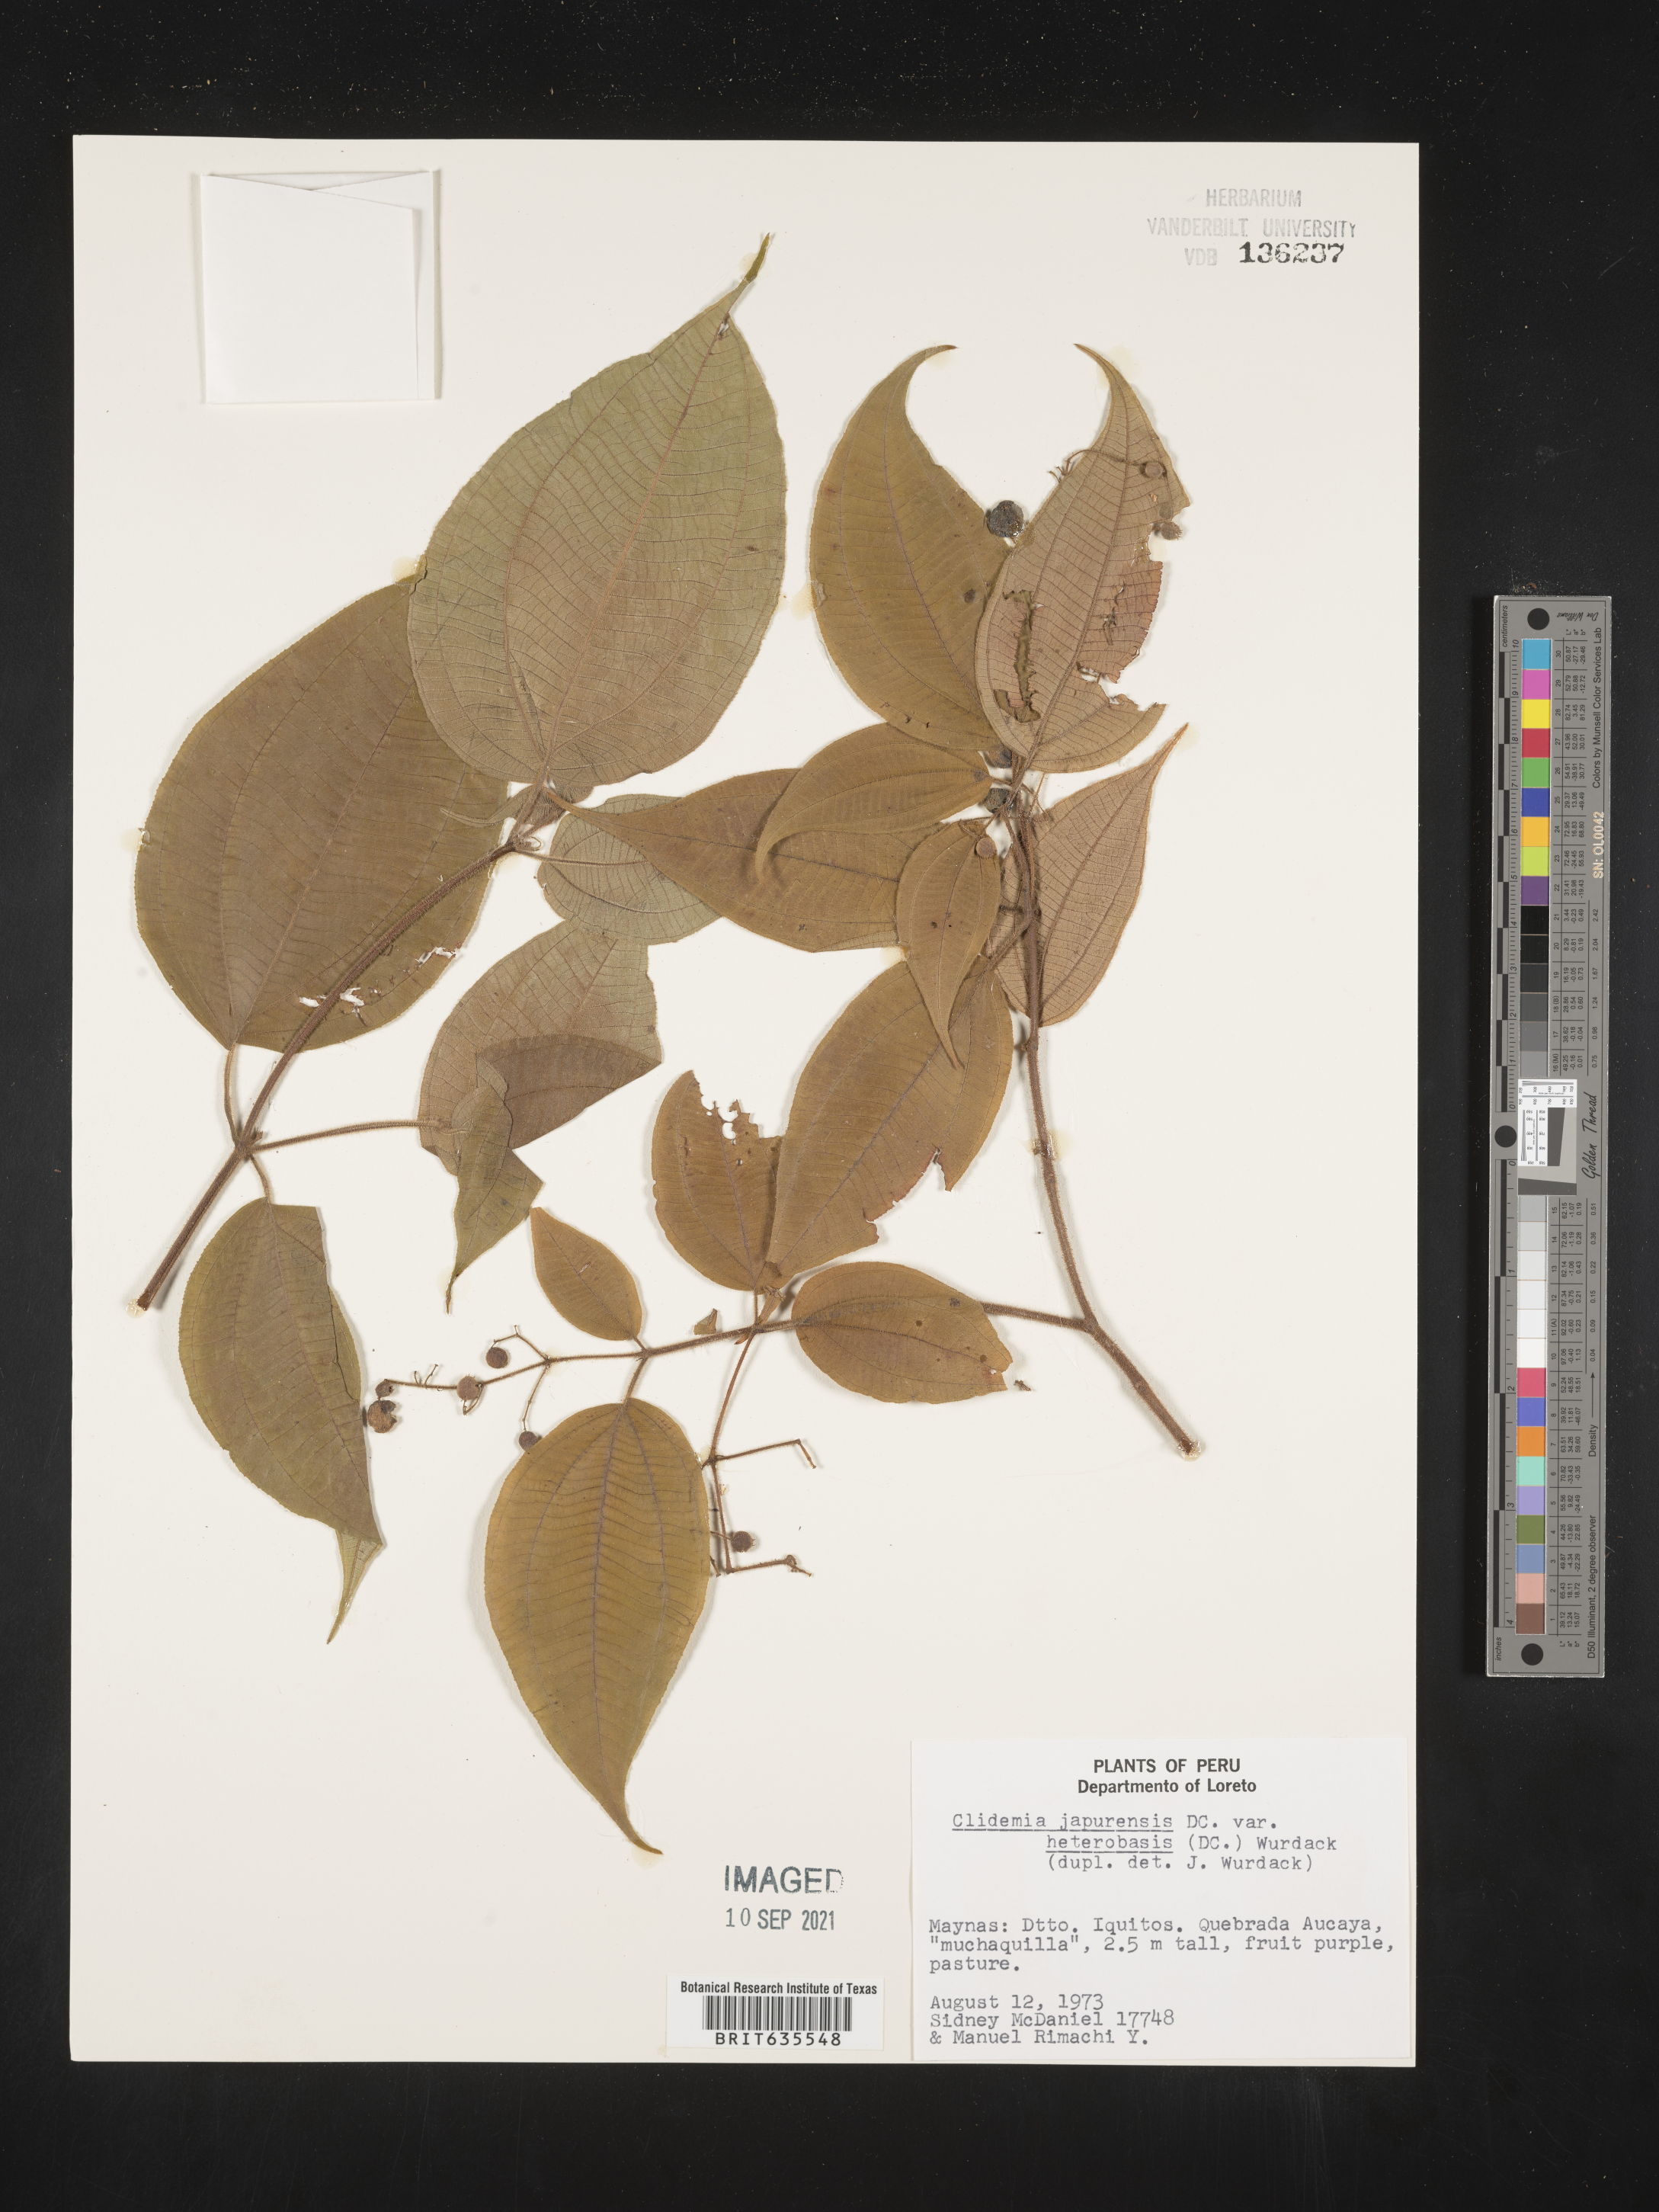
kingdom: Plantae
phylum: Tracheophyta
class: Magnoliopsida
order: Myrtales
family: Melastomataceae
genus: Miconia
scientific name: Miconia
